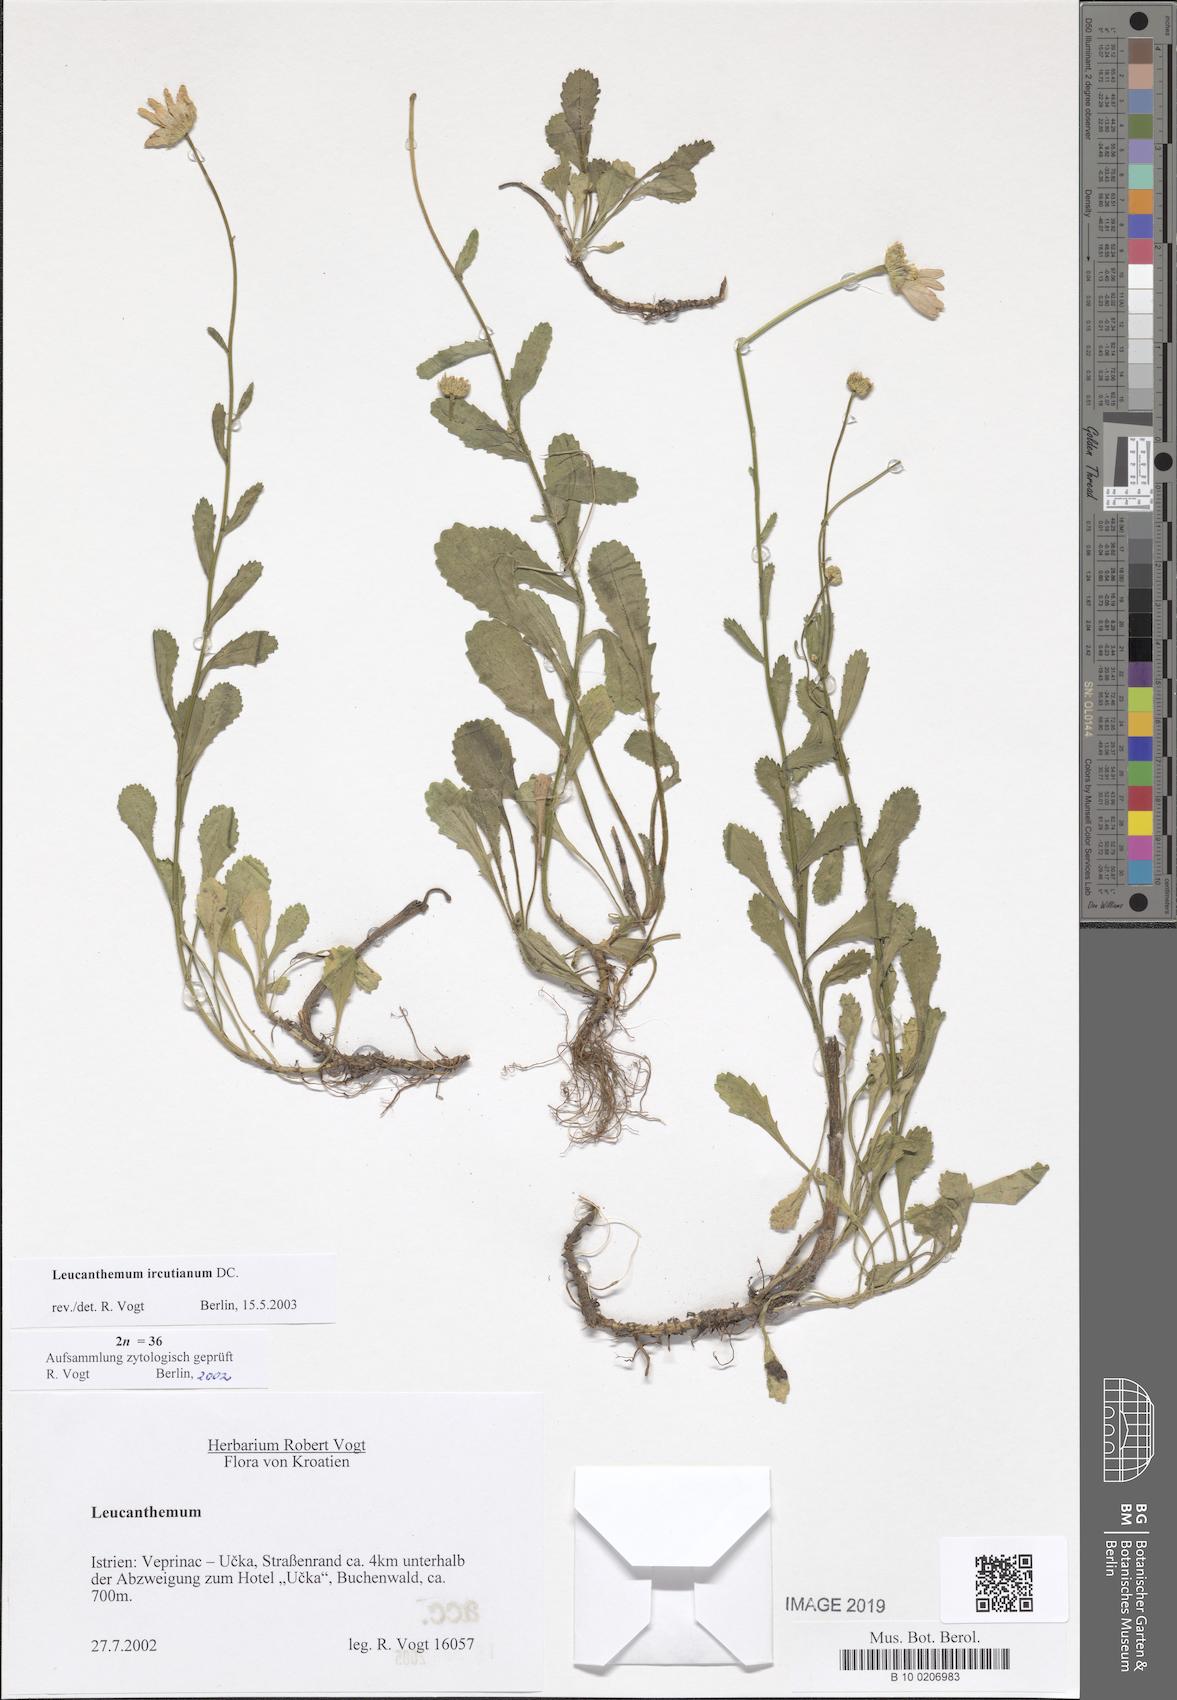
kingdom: Plantae
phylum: Tracheophyta
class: Magnoliopsida
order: Asterales
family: Asteraceae
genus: Leucanthemum
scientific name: Leucanthemum ircutianum
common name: Daisy
